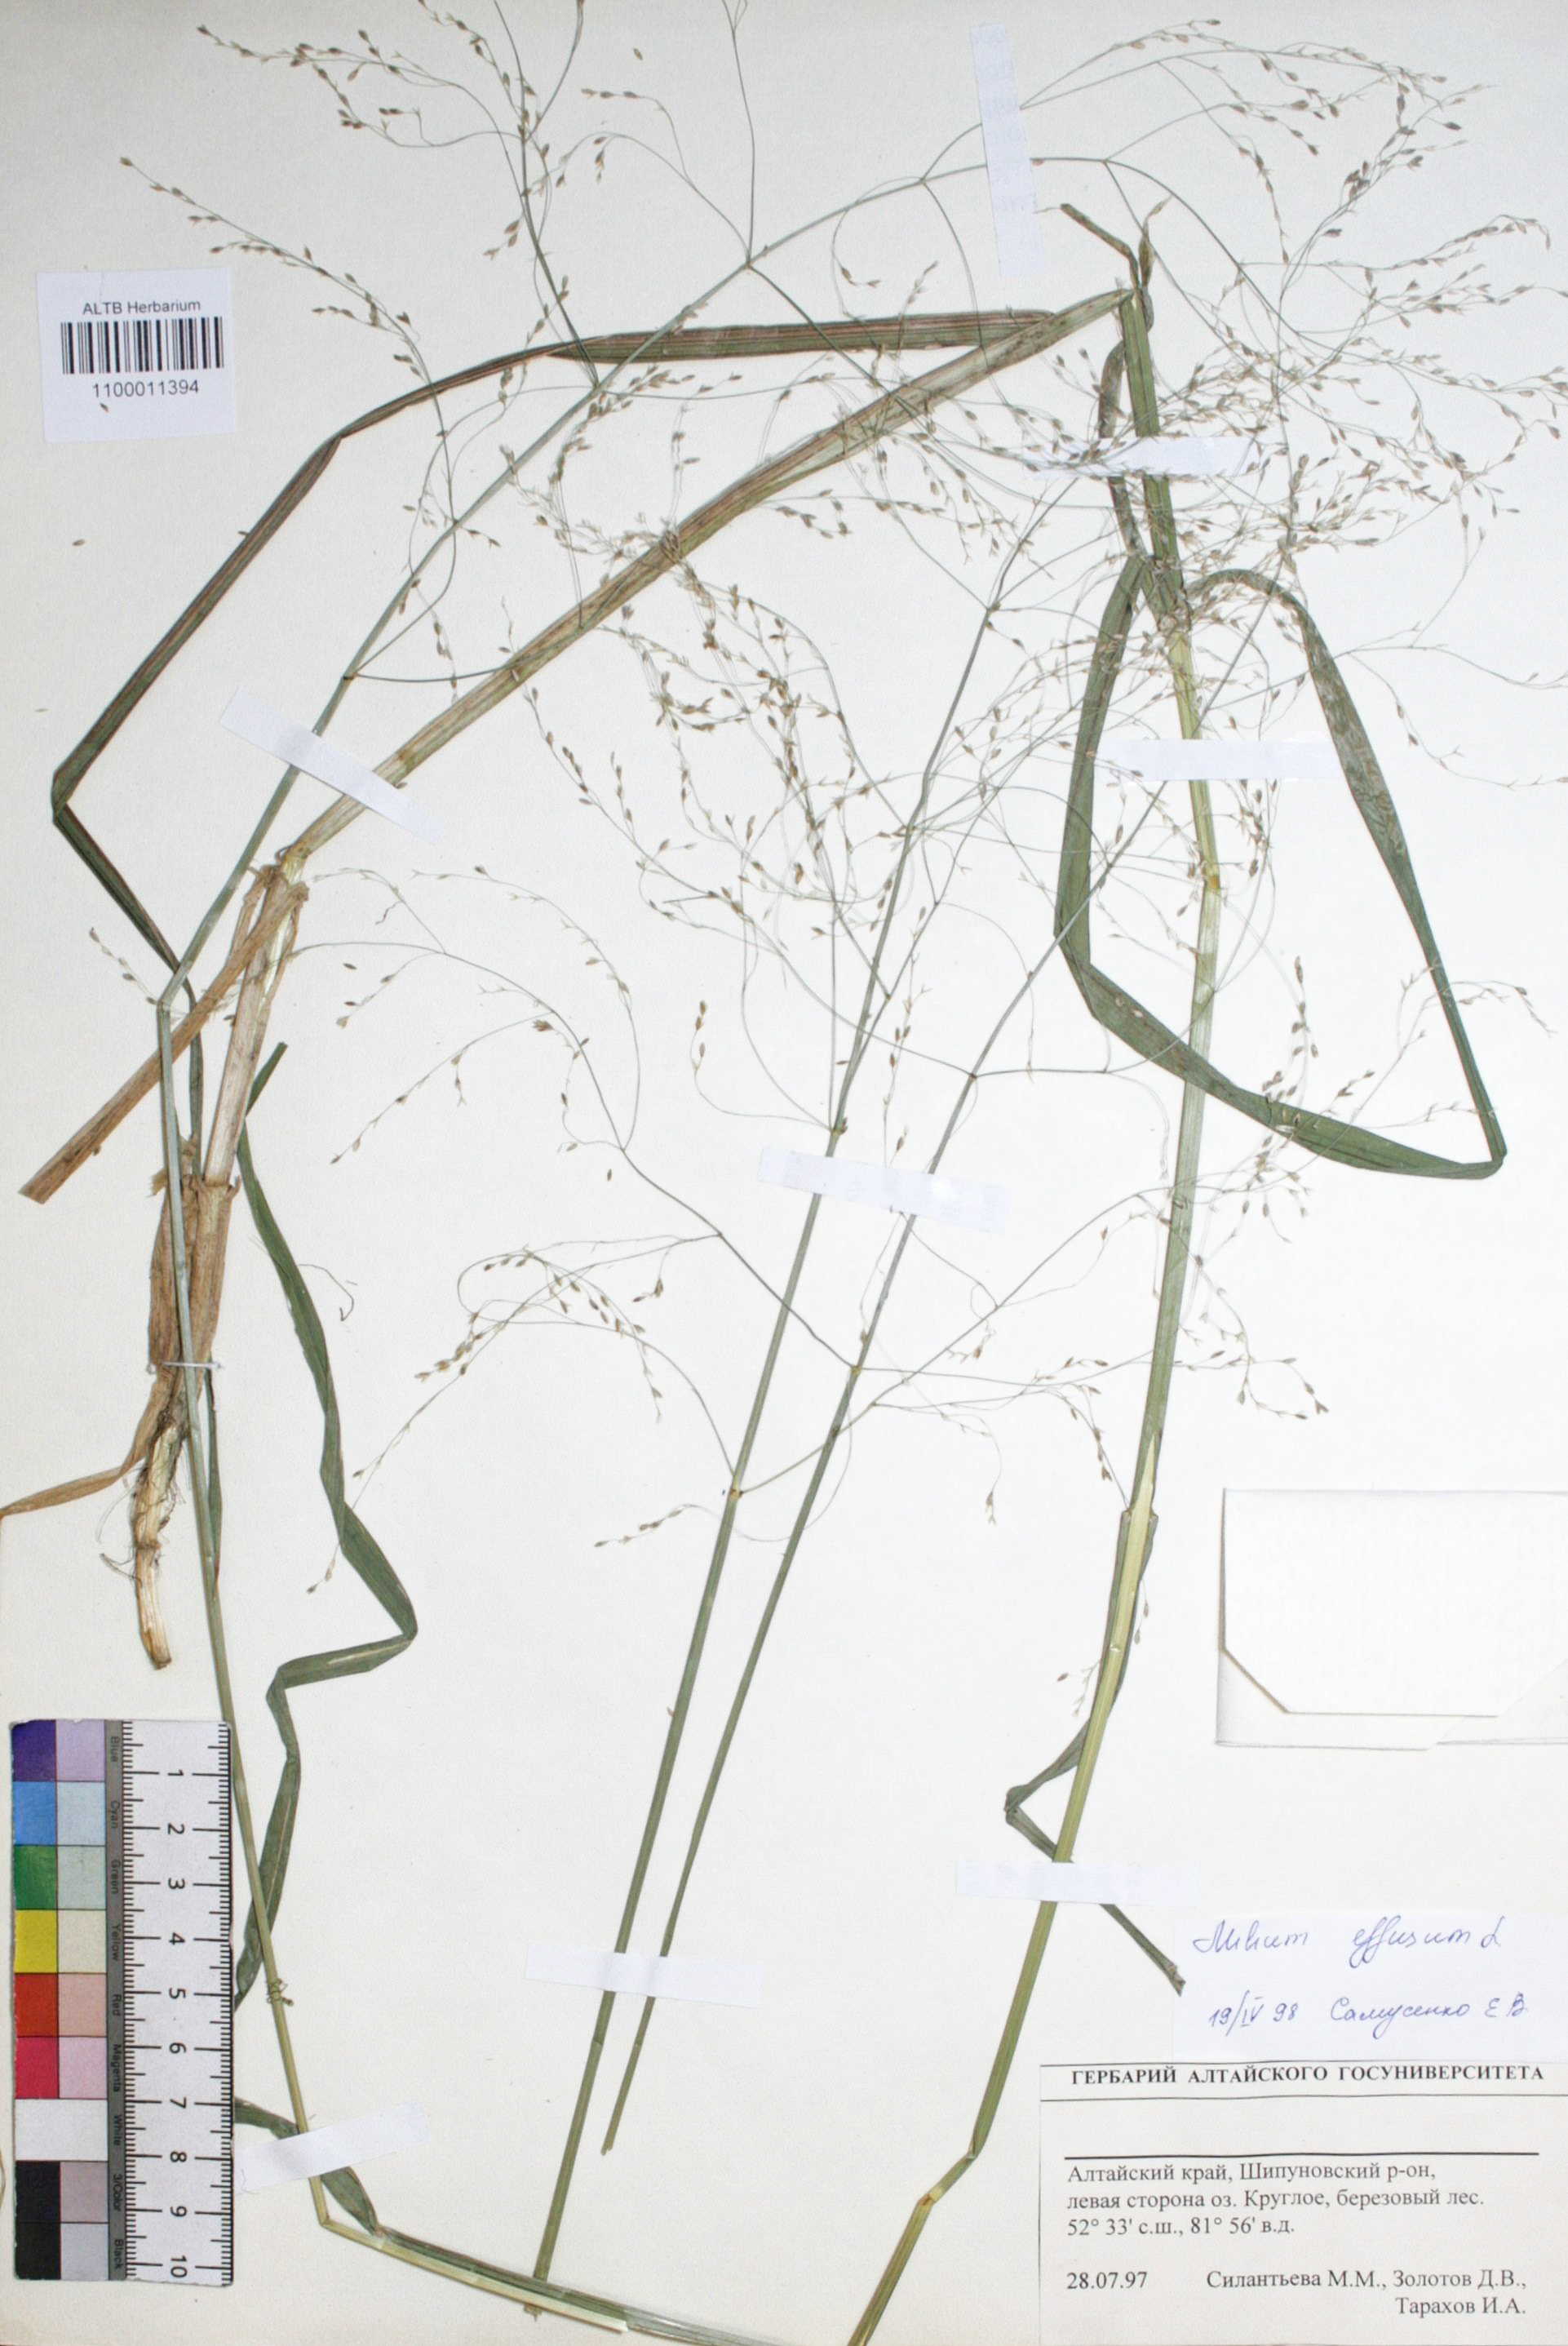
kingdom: Plantae
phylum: Tracheophyta
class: Liliopsida
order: Poales
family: Poaceae
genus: Milium
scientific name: Milium effusum
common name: Wood millet
